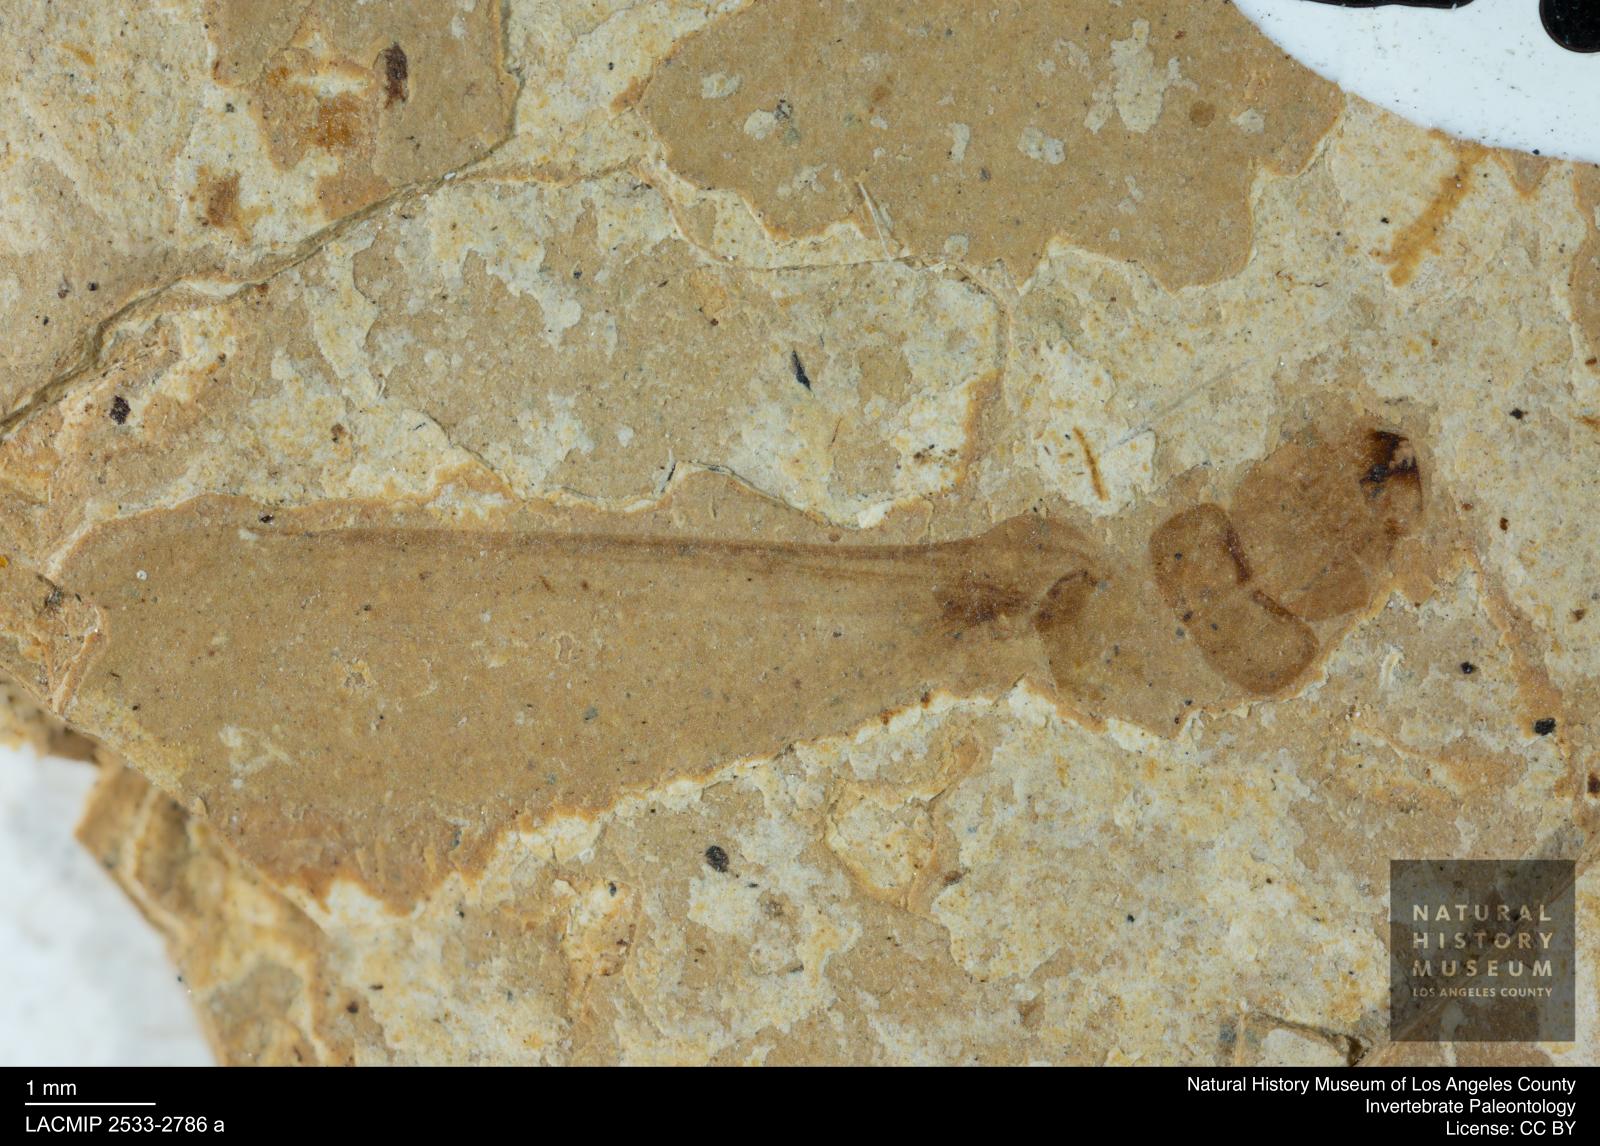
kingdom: Animalia
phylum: Arthropoda
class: Insecta
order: Blattodea
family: Kalotermitidae
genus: Kalotermes
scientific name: Kalotermes rhenanus
